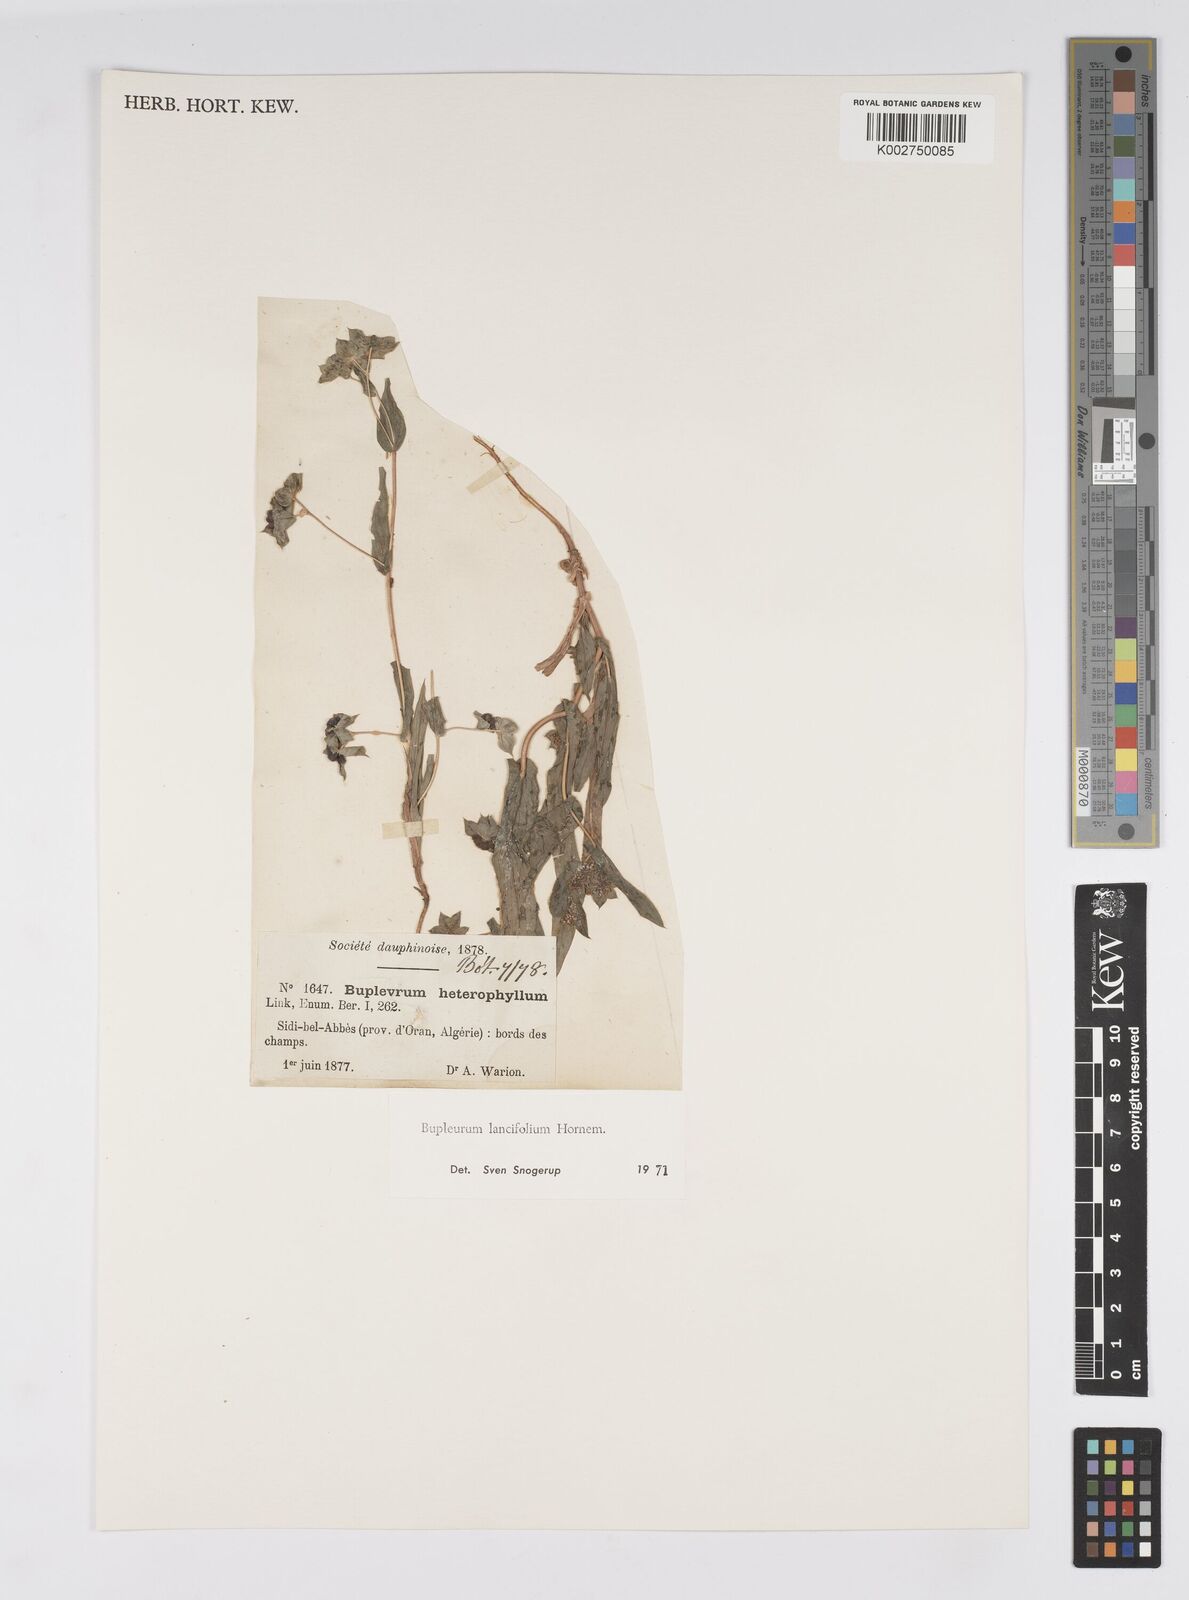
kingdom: Plantae
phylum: Tracheophyta
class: Magnoliopsida
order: Apiales
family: Apiaceae
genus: Bupleurum
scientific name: Bupleurum lancifolium
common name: False thorow-wax
